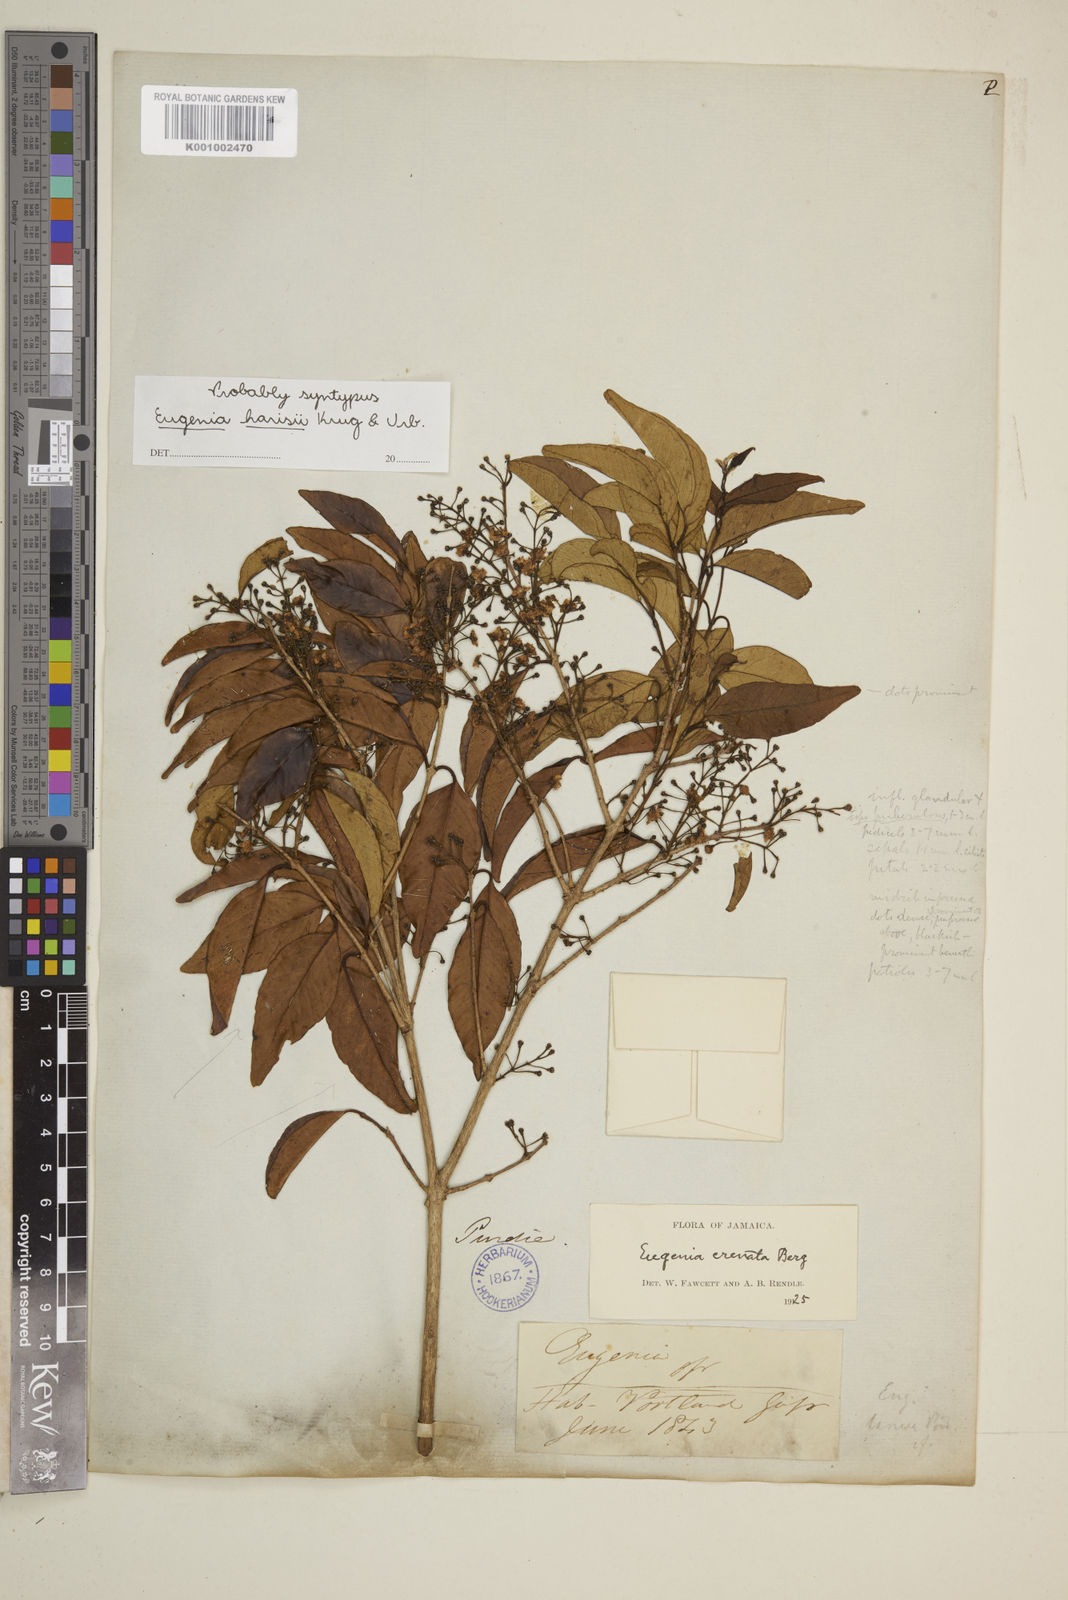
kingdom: Plantae
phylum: Tracheophyta
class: Magnoliopsida
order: Myrtales
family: Myrtaceae
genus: Eugenia
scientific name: Eugenia crenata
